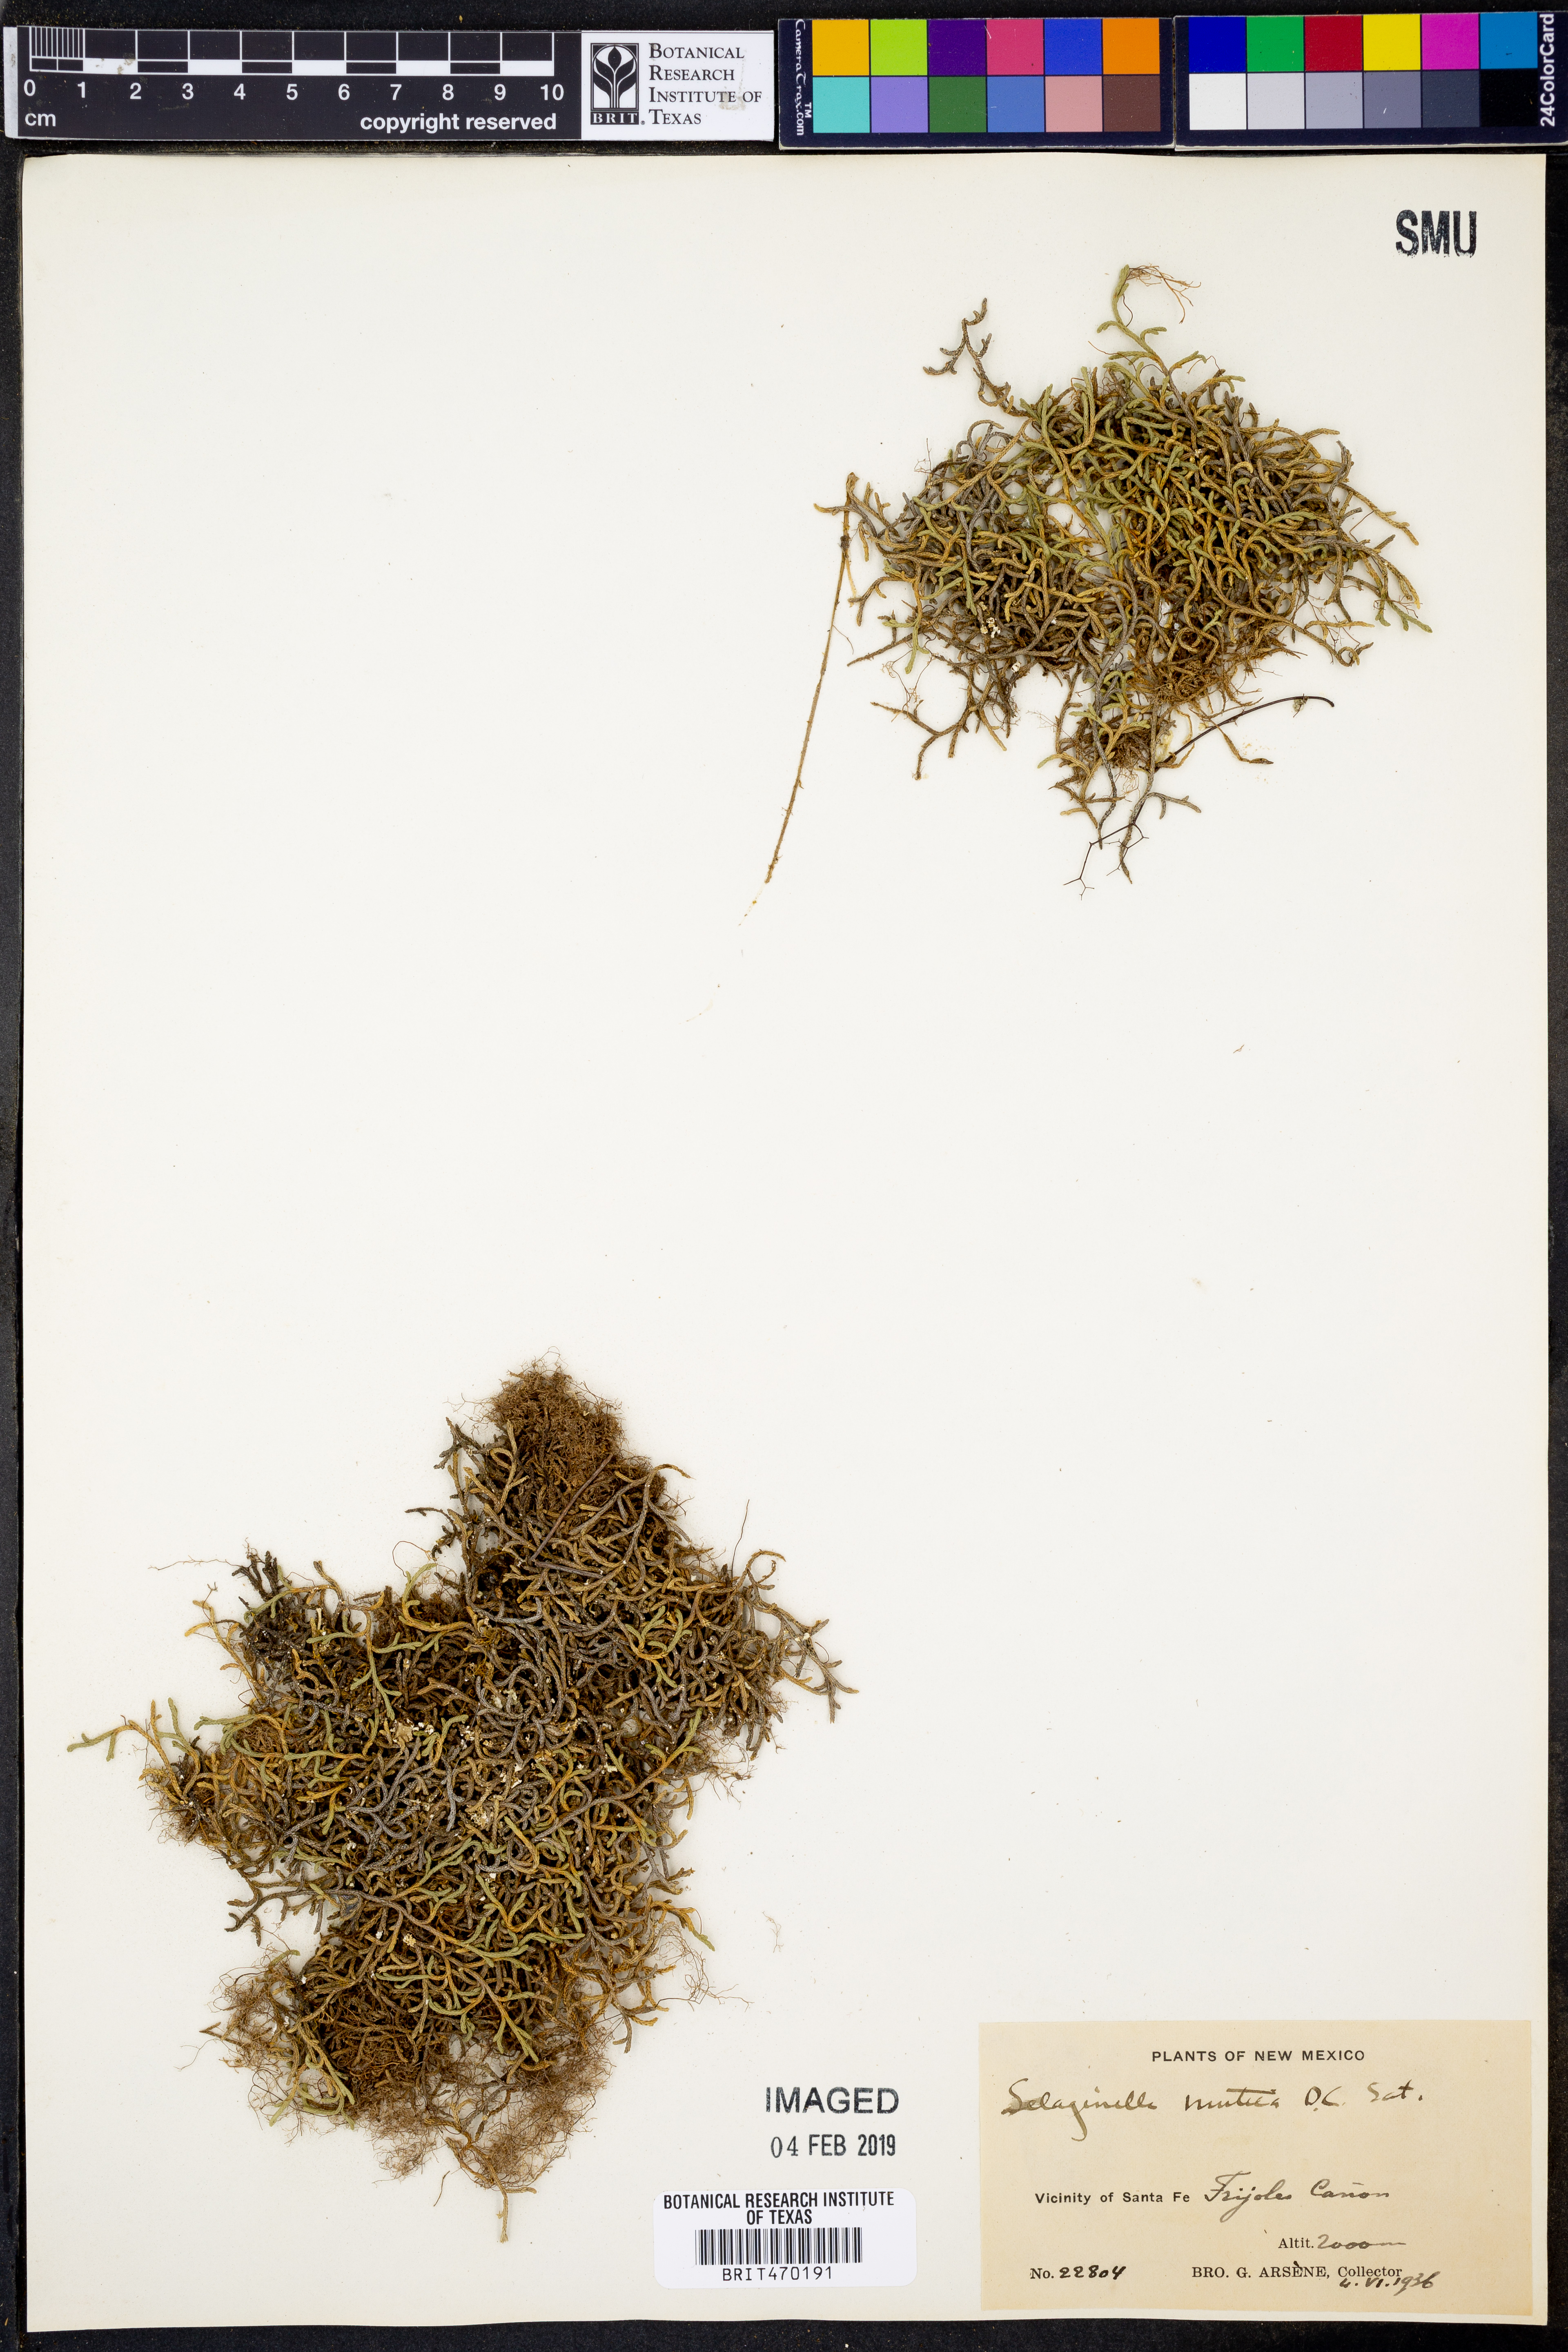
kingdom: Plantae
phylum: Tracheophyta
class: Lycopodiopsida
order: Selaginellales
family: Selaginellaceae
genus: Selaginella
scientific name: Selaginella mutica
